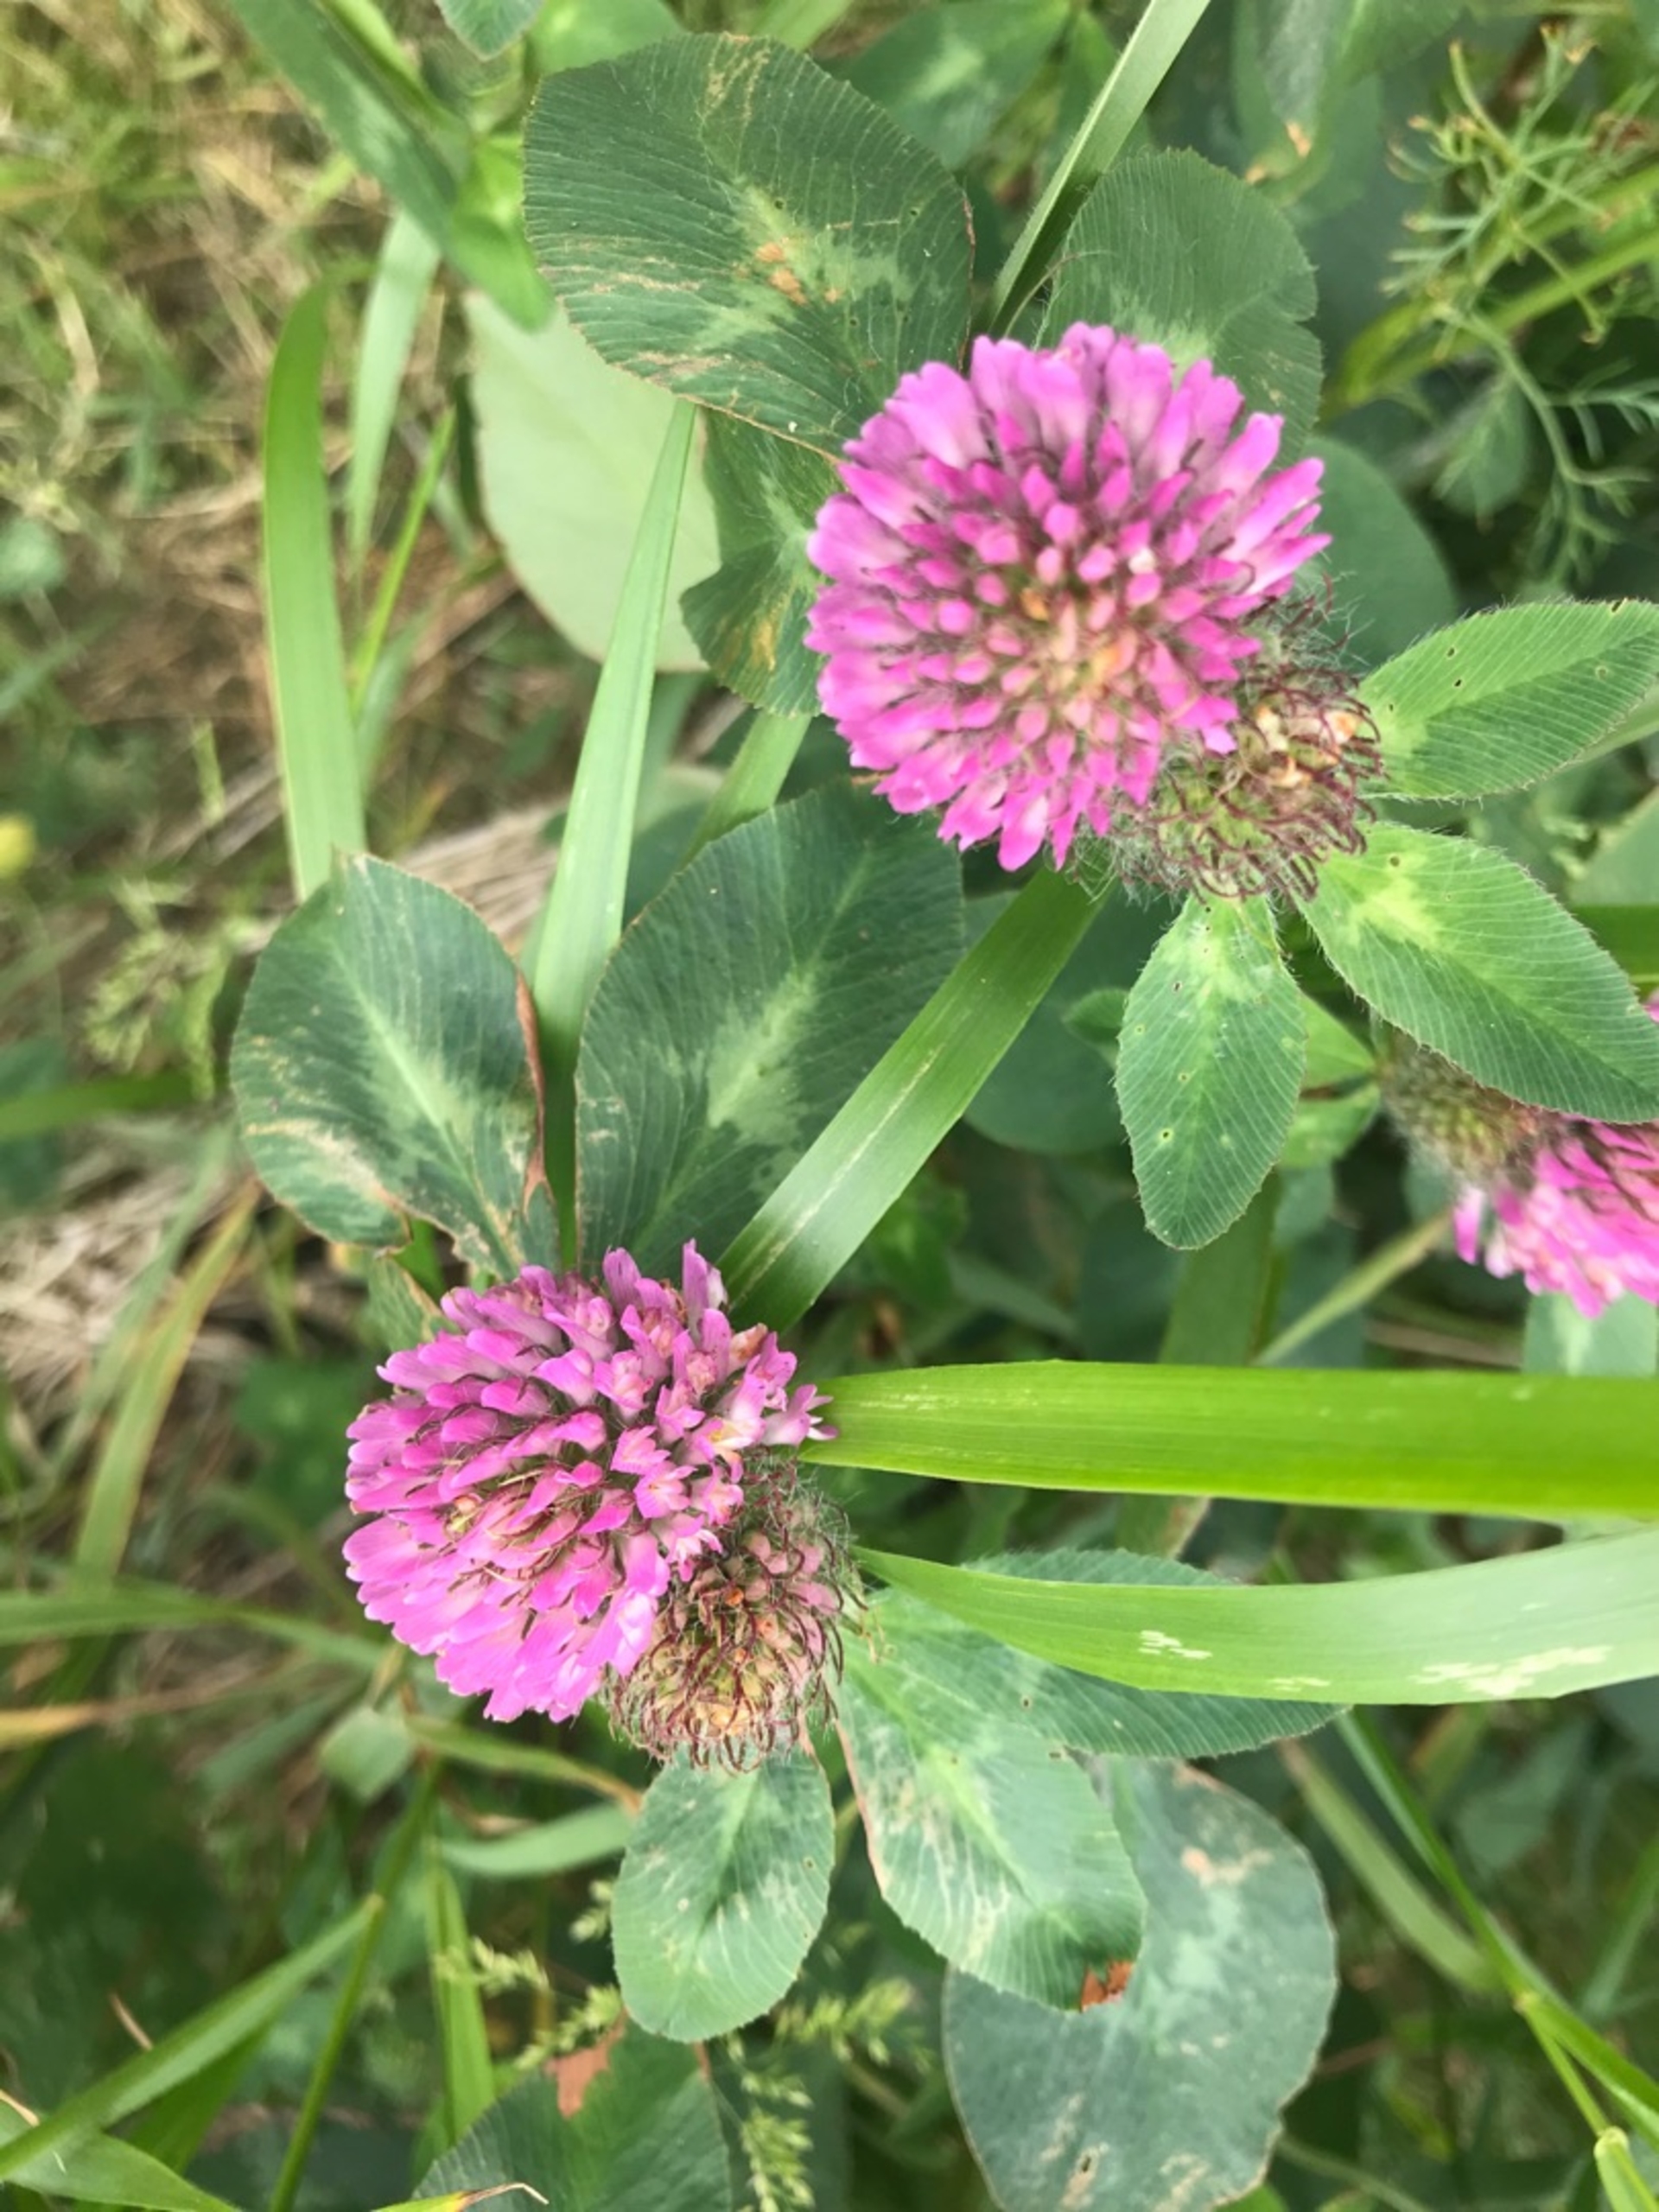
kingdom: Plantae
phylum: Tracheophyta
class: Magnoliopsida
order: Fabales
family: Fabaceae
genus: Trifolium
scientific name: Trifolium pratense
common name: Rød-kløver
